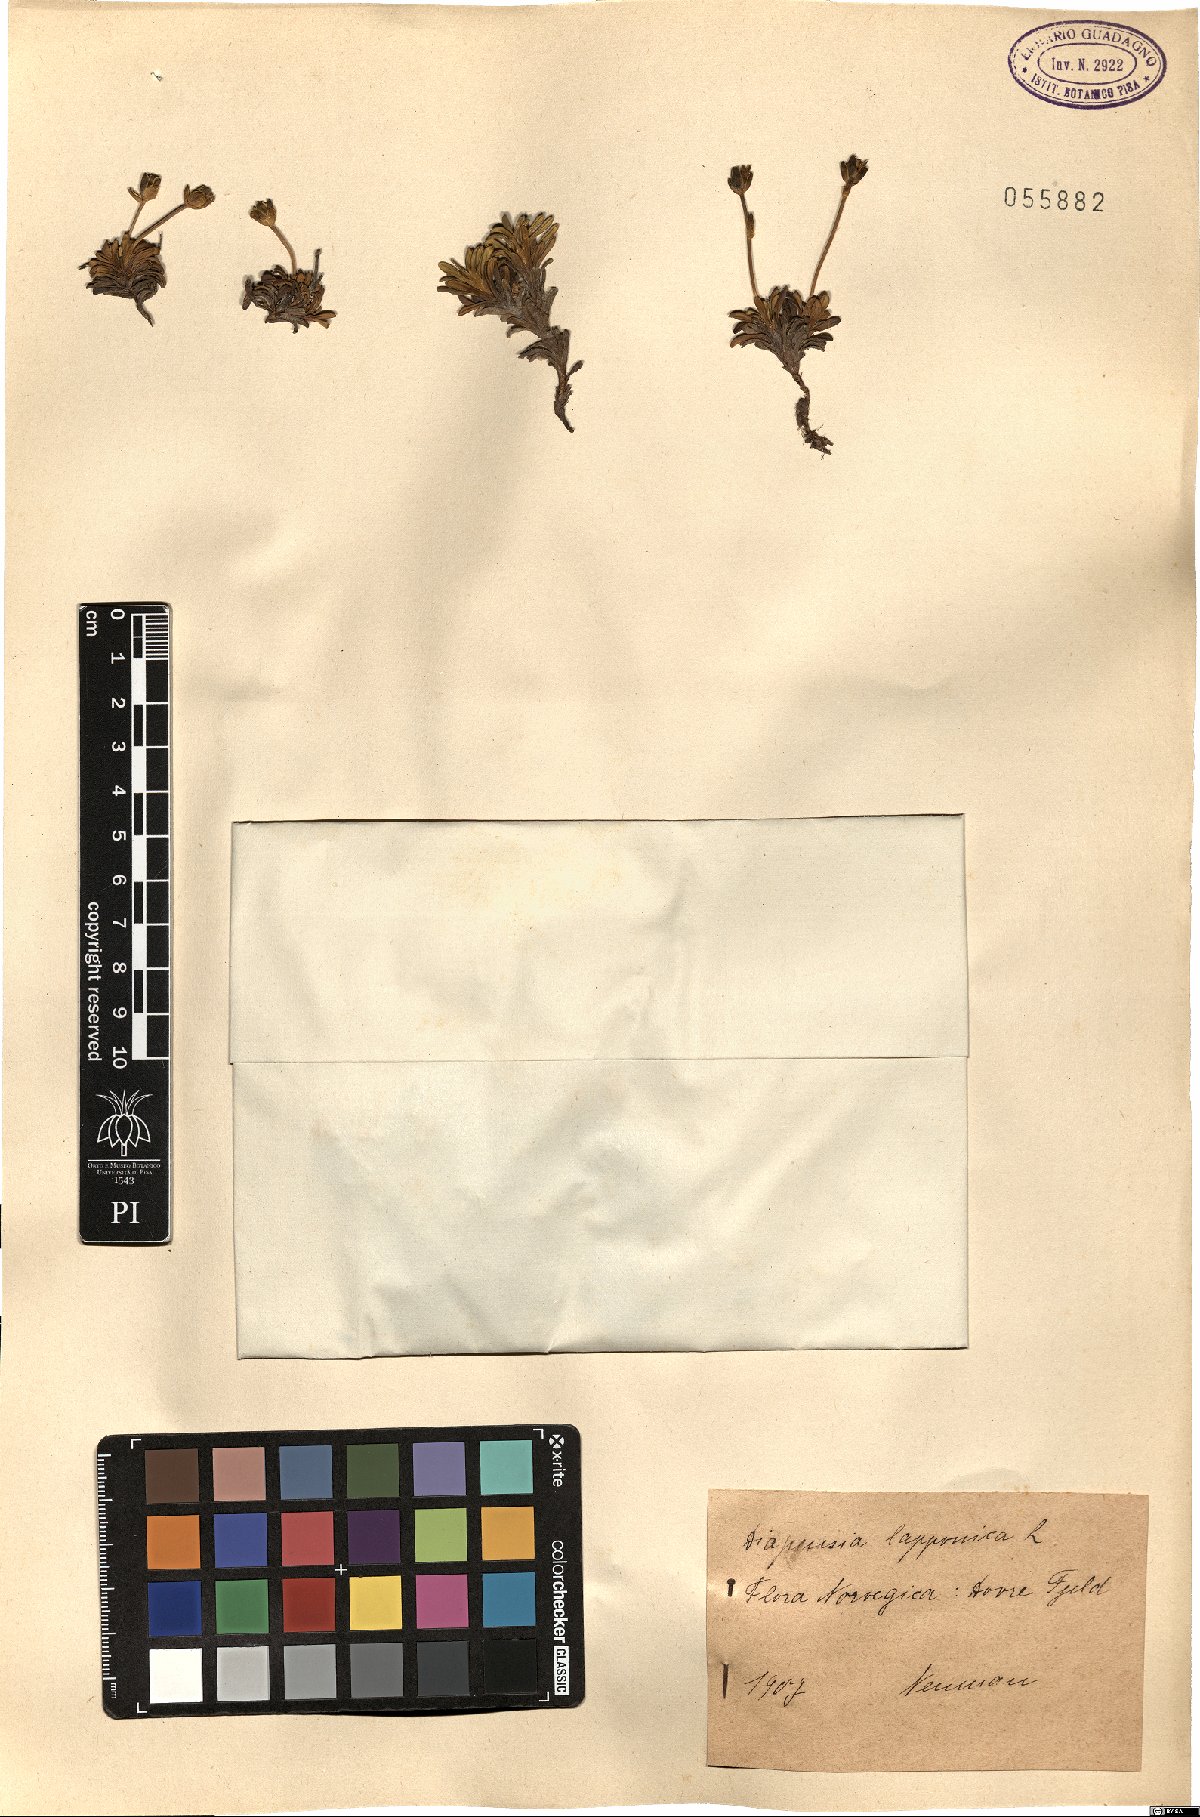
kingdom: Plantae
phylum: Tracheophyta
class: Magnoliopsida
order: Ericales
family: Diapensiaceae
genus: Diapensia
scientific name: Diapensia lapponica
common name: Diapensia
